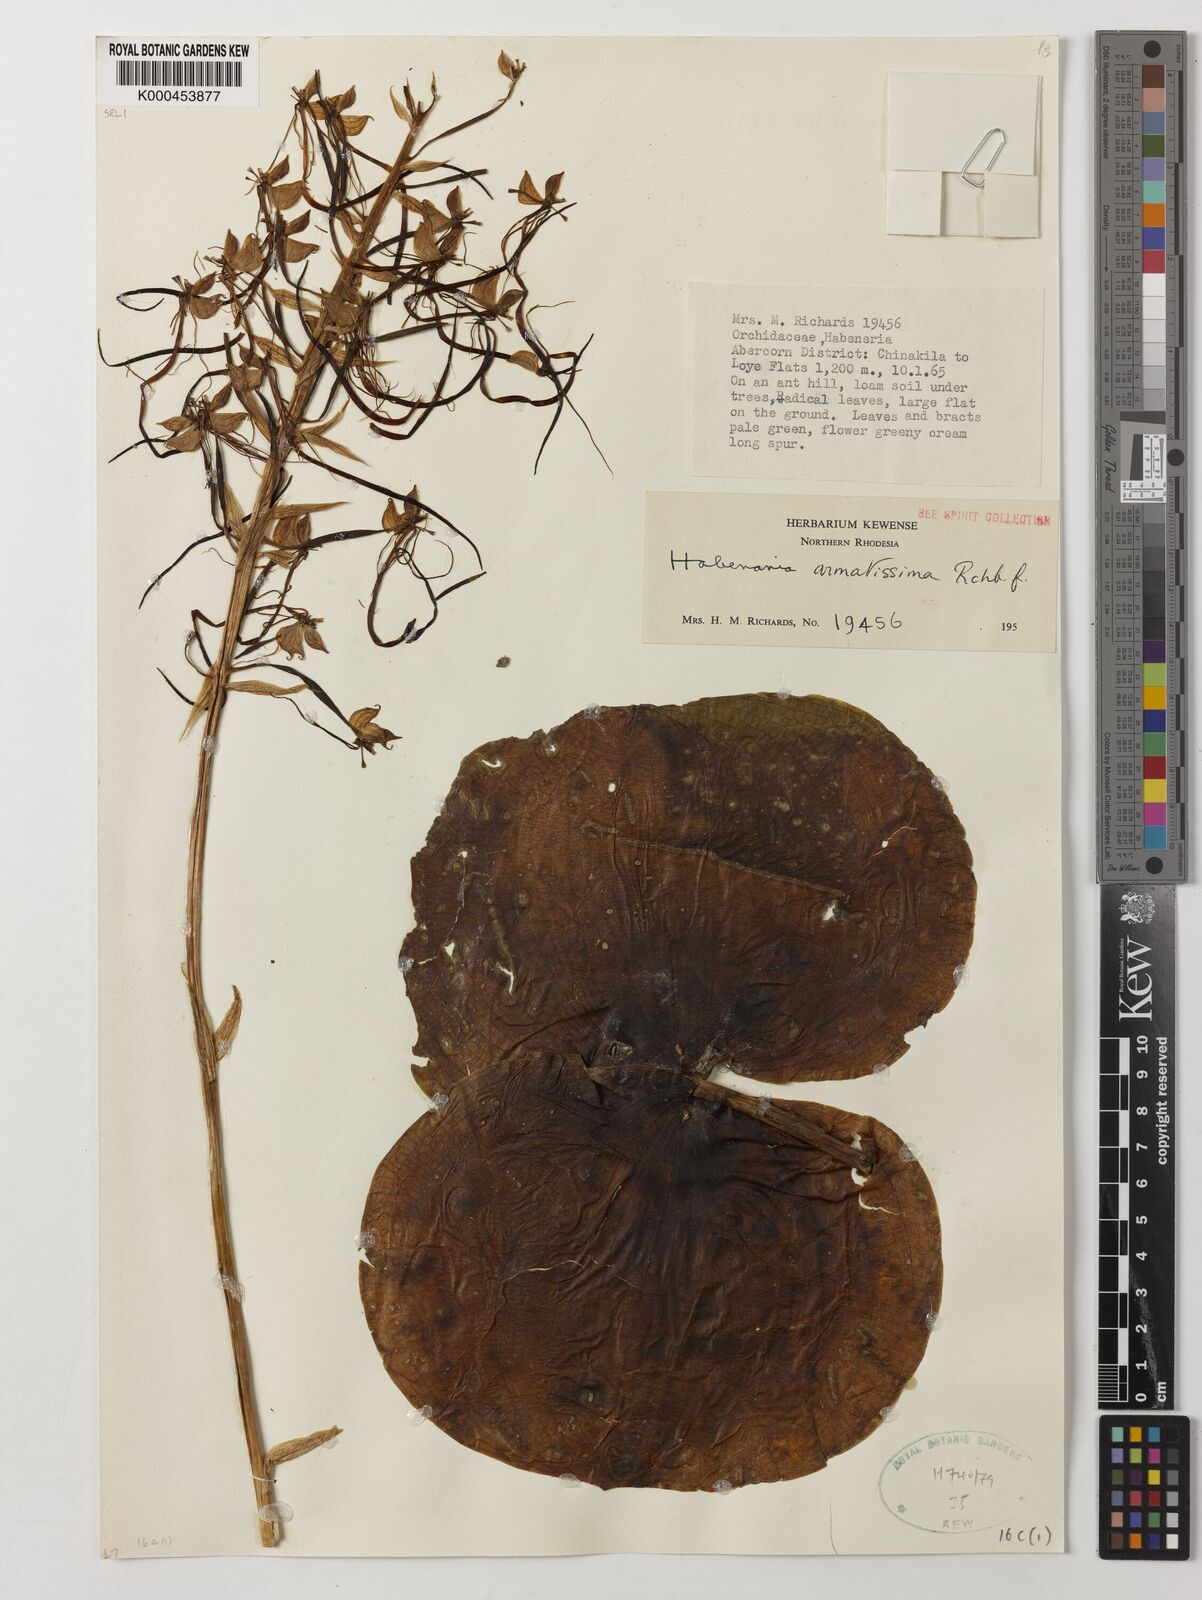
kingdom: Plantae
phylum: Tracheophyta
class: Liliopsida
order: Asparagales
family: Orchidaceae
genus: Habenaria
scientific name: Habenaria armatissima
